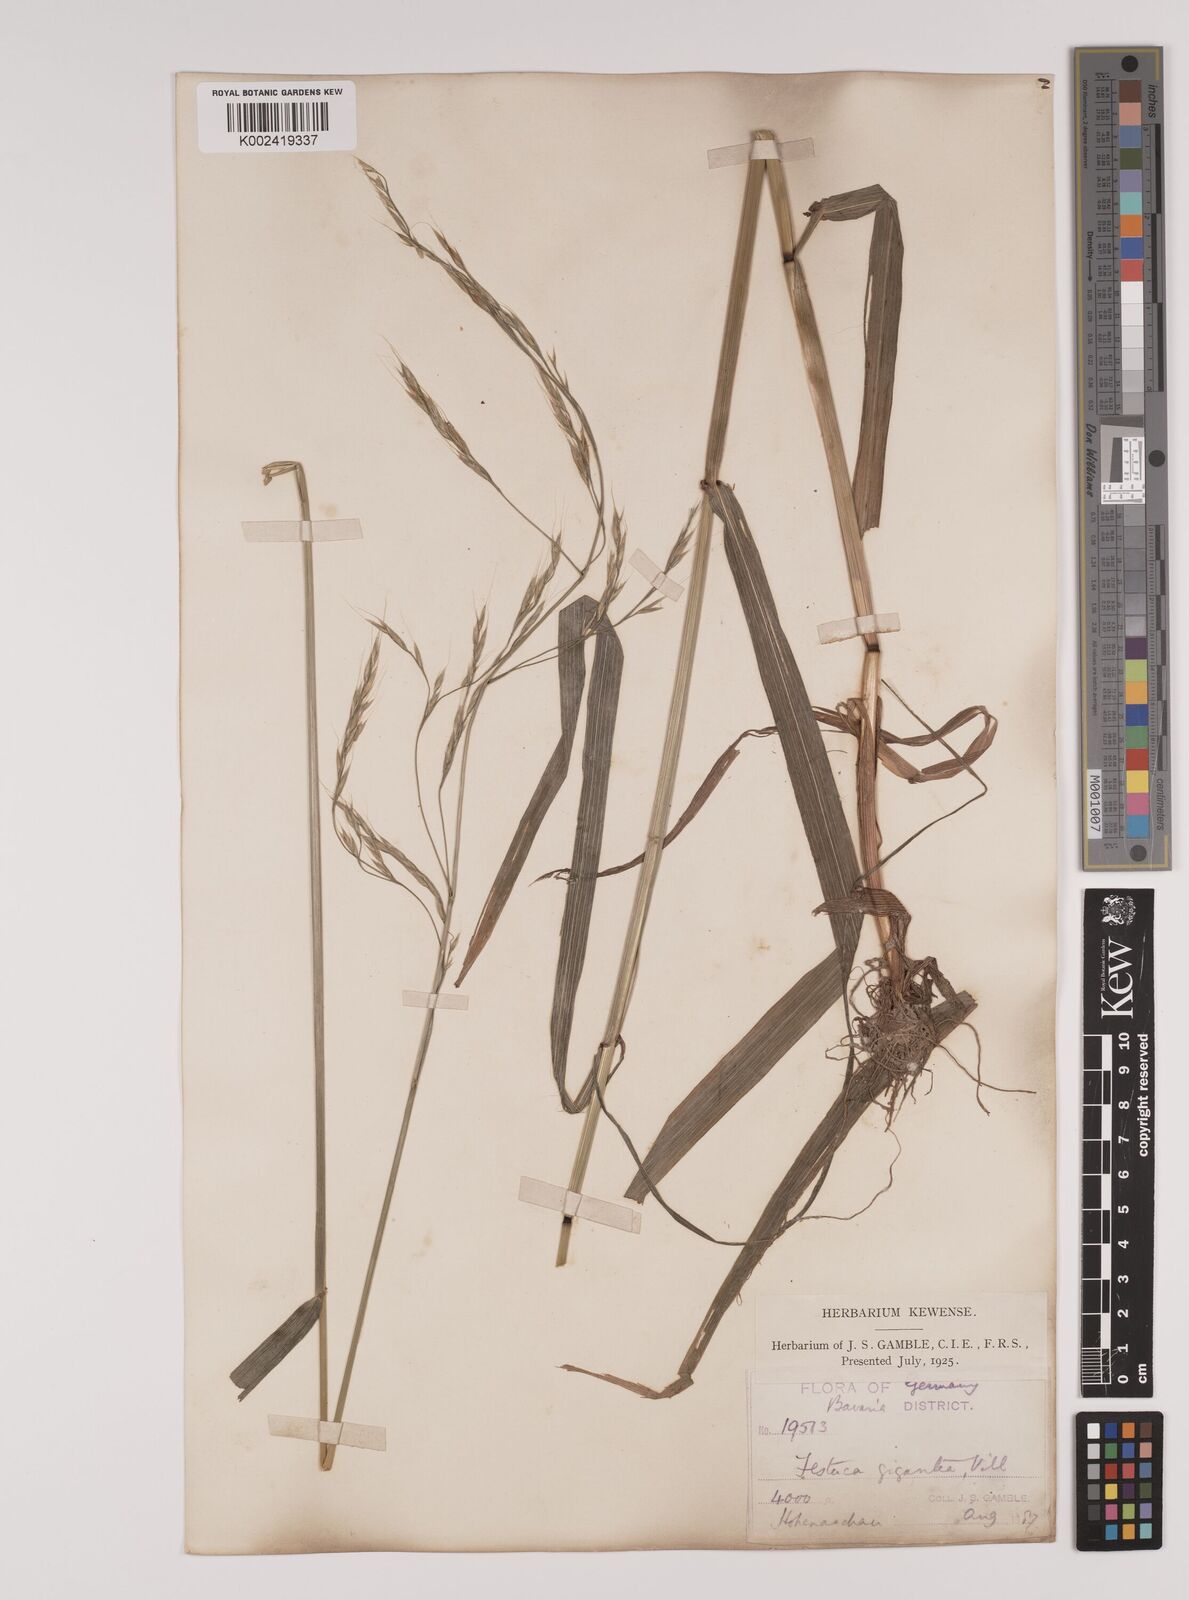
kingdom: Plantae
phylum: Tracheophyta
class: Liliopsida
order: Poales
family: Poaceae
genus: Lolium
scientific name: Lolium giganteum
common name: Giant fescue
